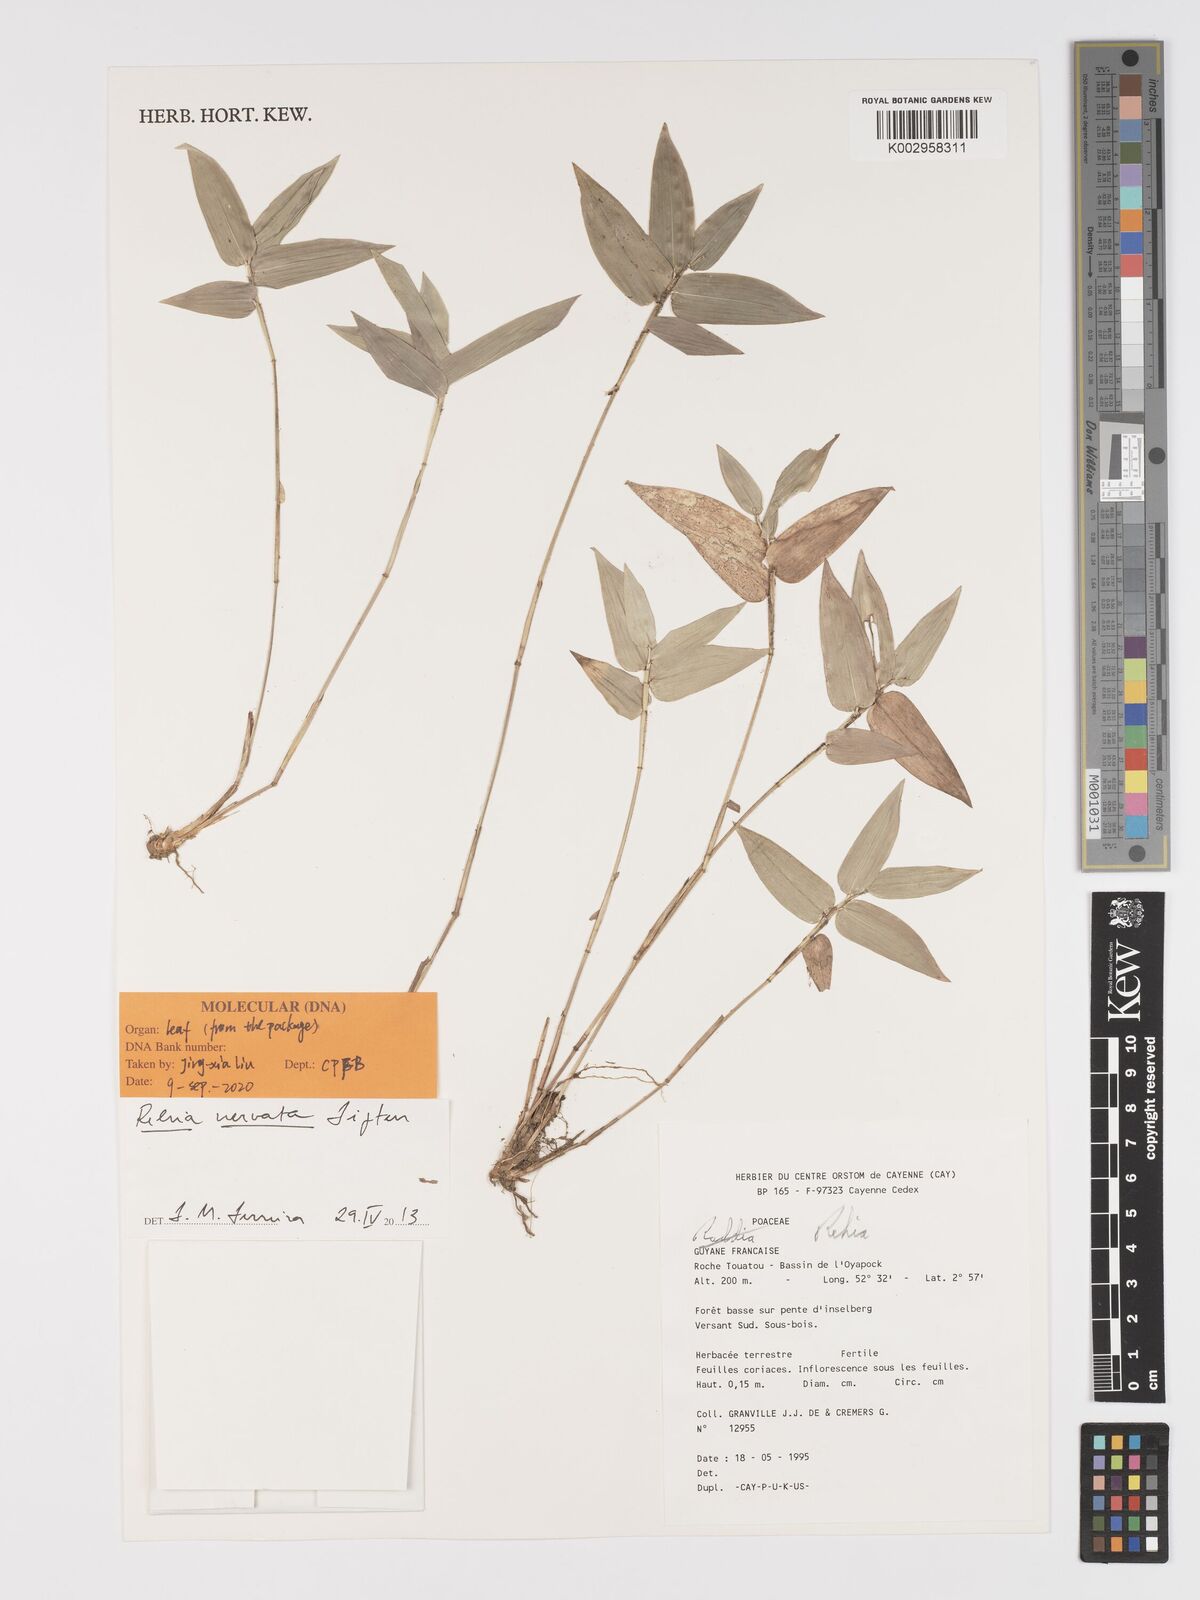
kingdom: Plantae
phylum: Tracheophyta
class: Liliopsida
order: Poales
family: Poaceae
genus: Rehia
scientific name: Rehia nervata
